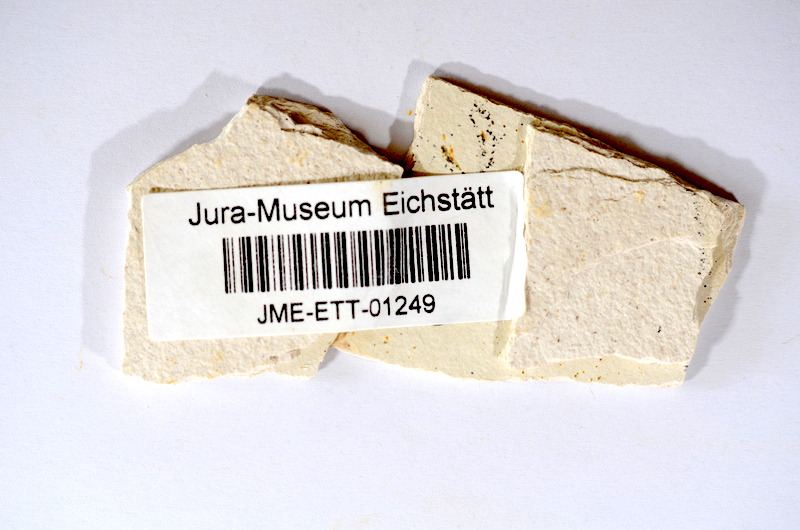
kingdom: Animalia
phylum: Chordata
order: Salmoniformes
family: Orthogonikleithridae
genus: Orthogonikleithrus
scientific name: Orthogonikleithrus hoelli
